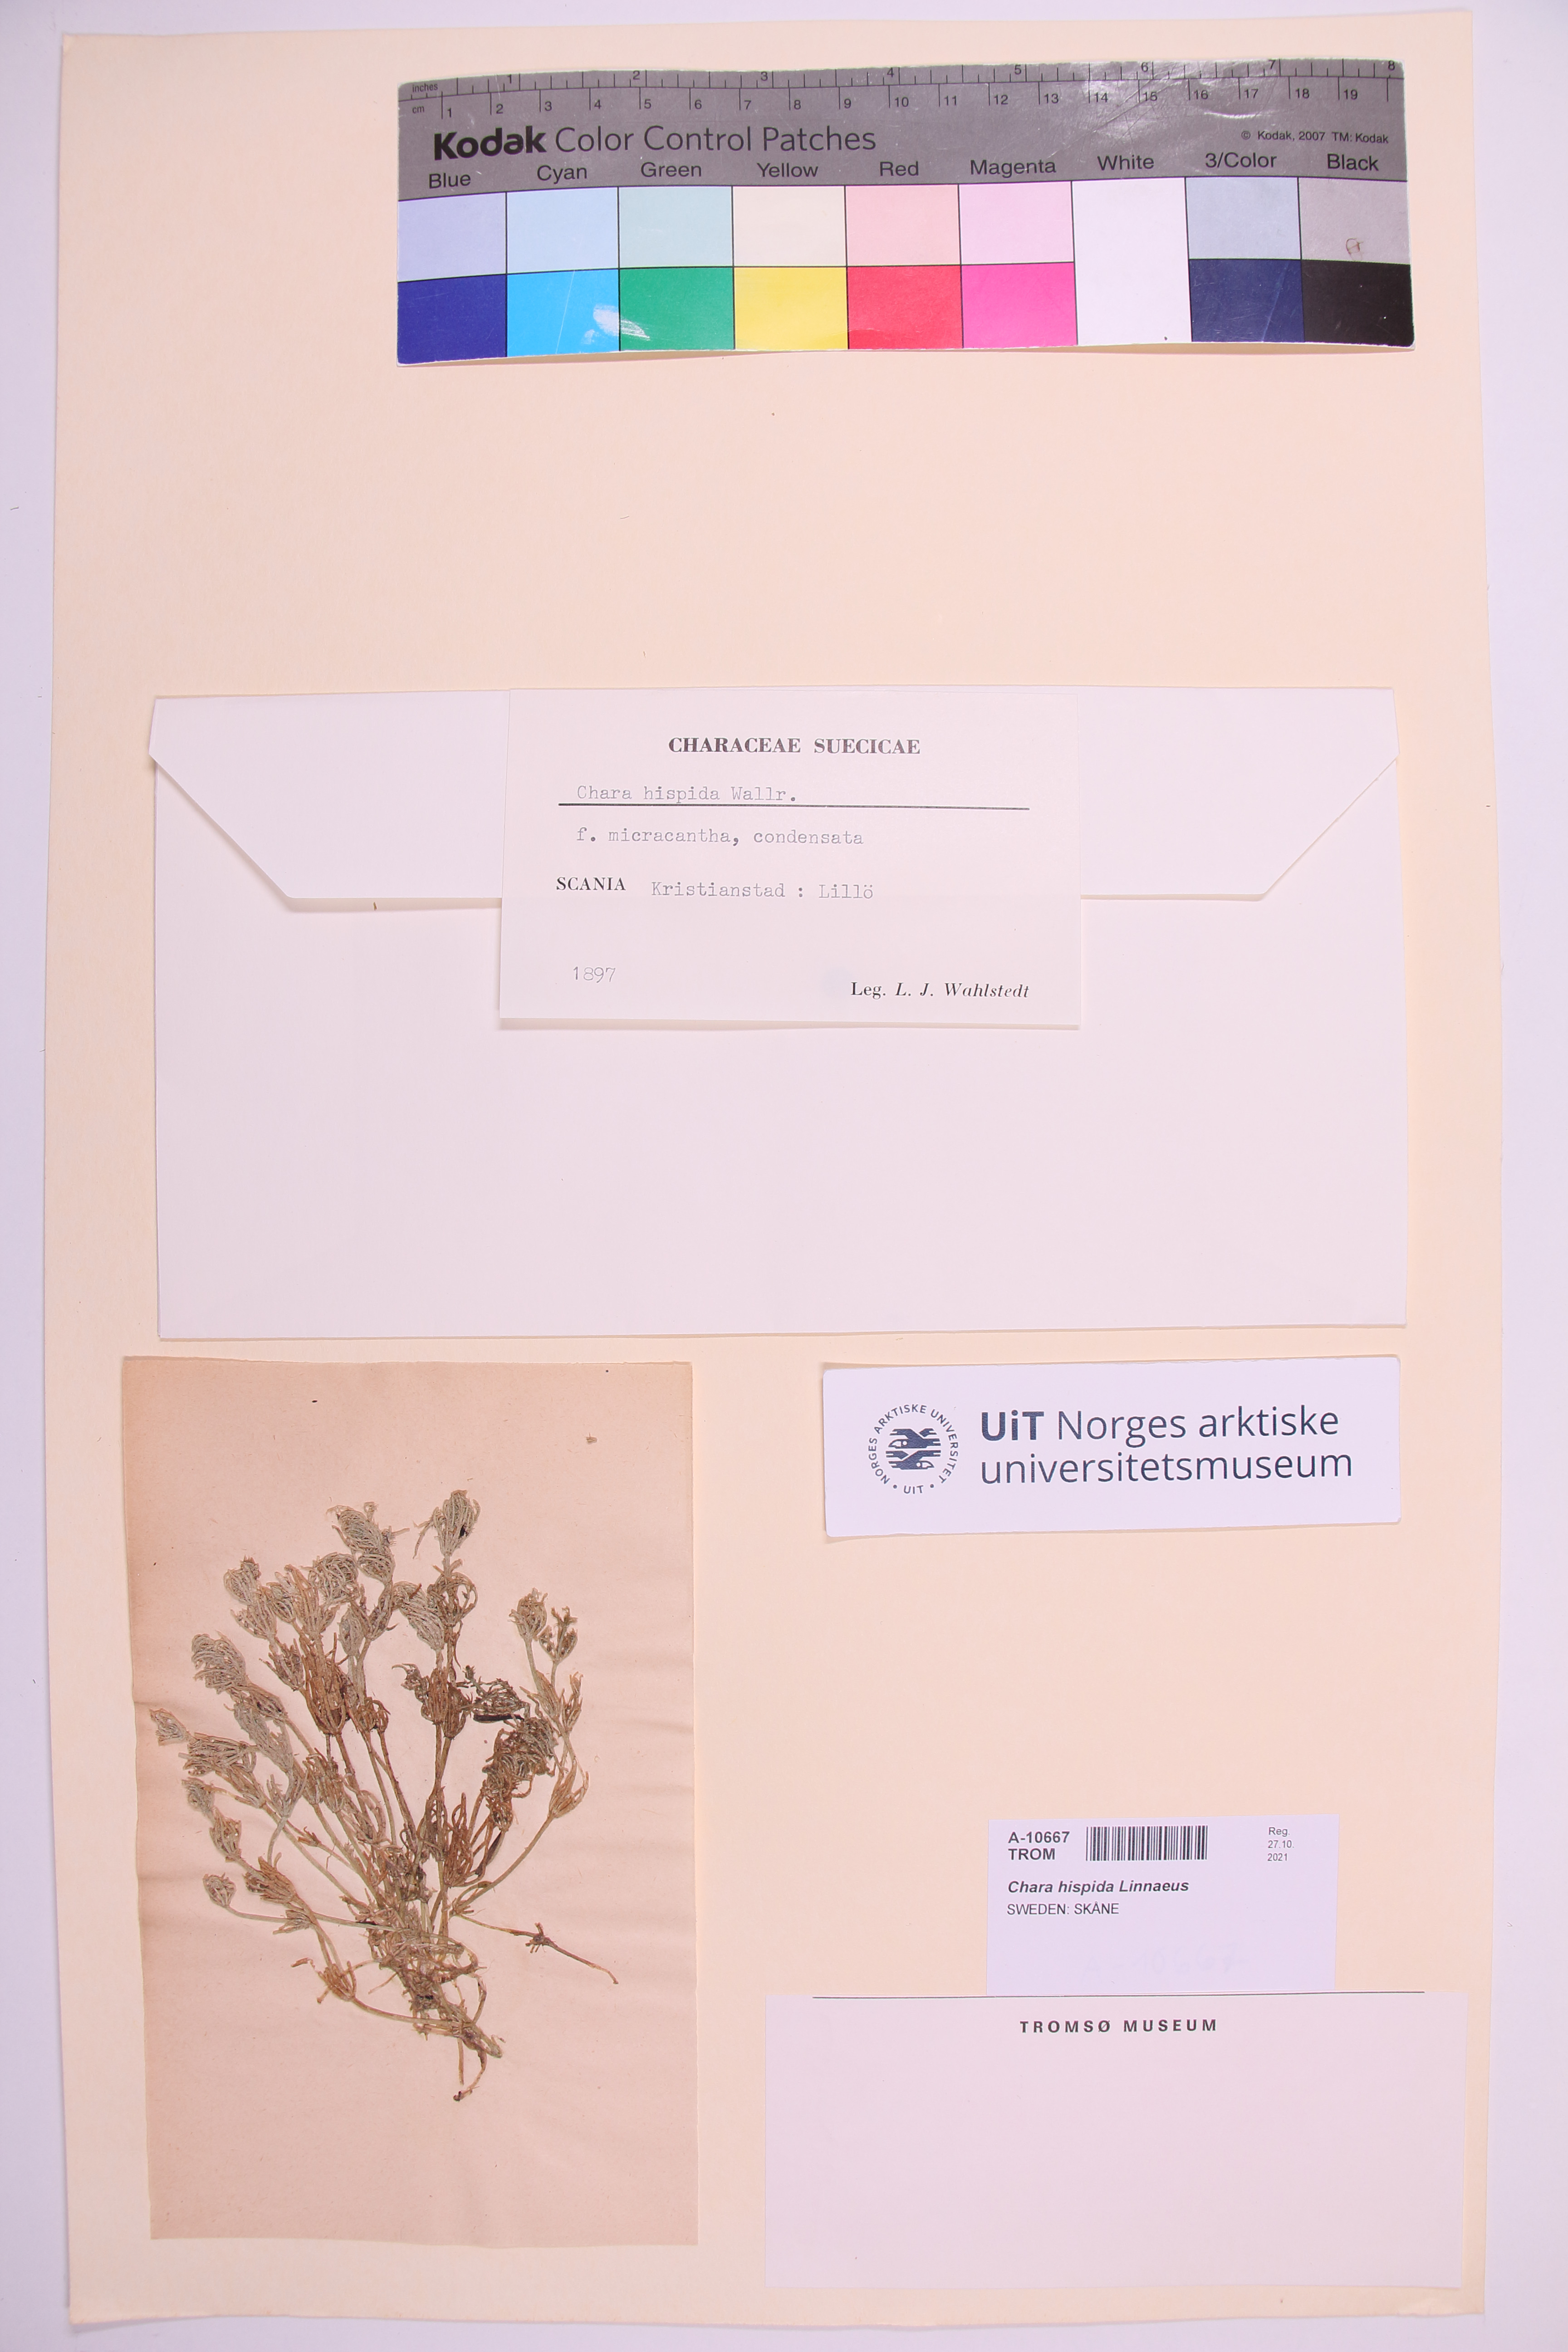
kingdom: Plantae
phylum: Charophyta
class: Charophyceae
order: Charales
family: Characeae
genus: Chara
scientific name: Chara hispida
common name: Bristly stonewort
